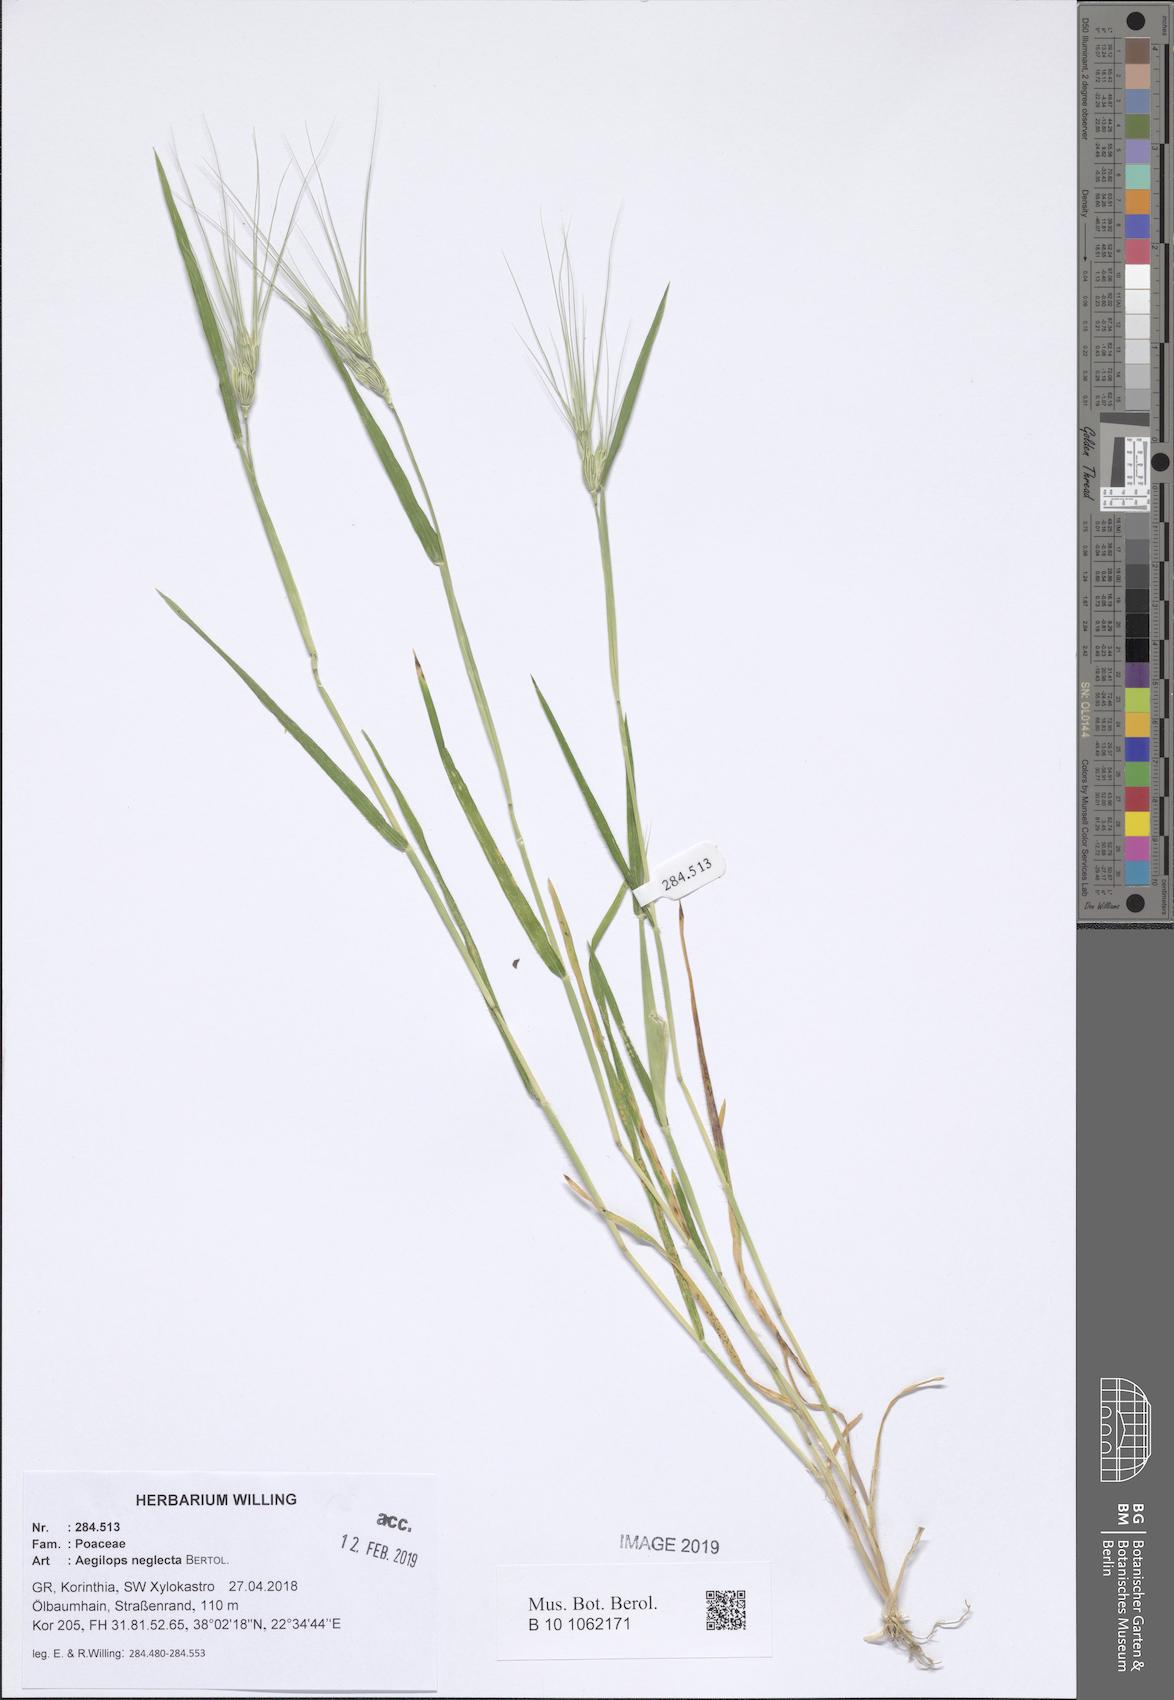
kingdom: Plantae
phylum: Tracheophyta
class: Liliopsida
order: Poales
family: Poaceae
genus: Aegilops
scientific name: Aegilops neglecta
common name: Three-awn goat grass
